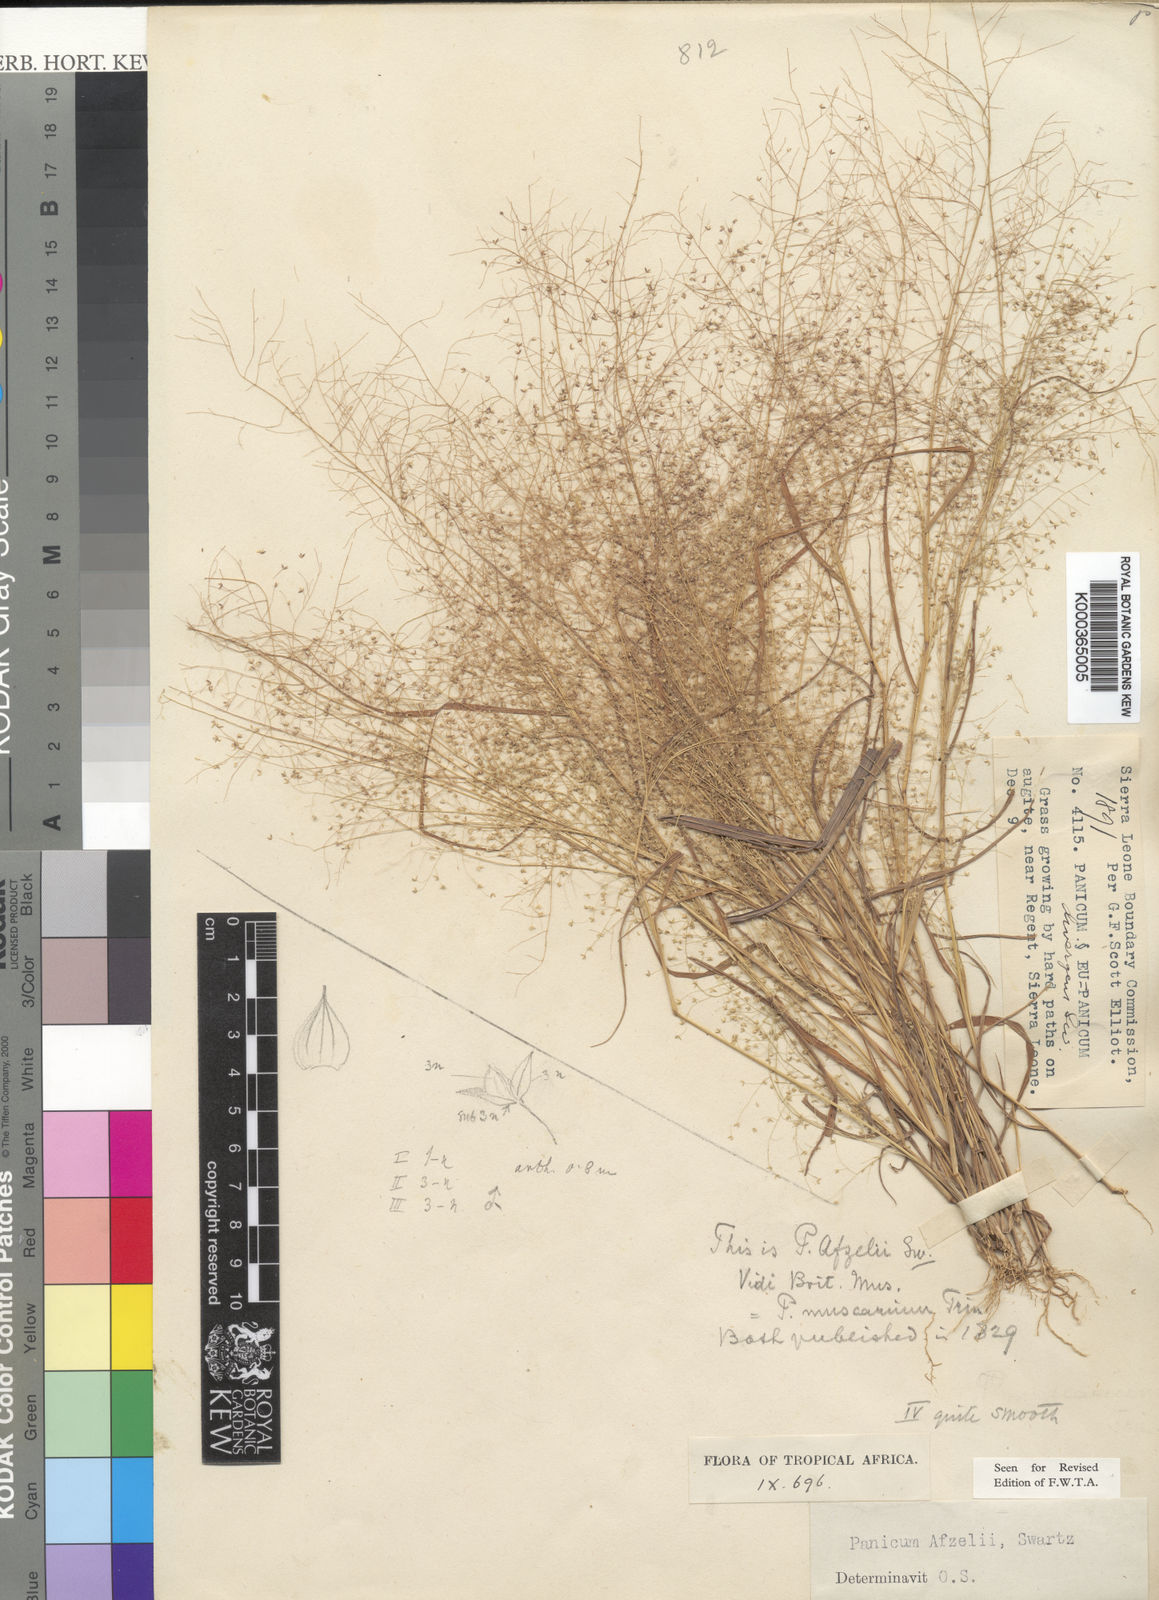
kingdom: Plantae
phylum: Tracheophyta
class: Liliopsida
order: Poales
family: Poaceae
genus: Panicum
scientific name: Panicum afzelii
